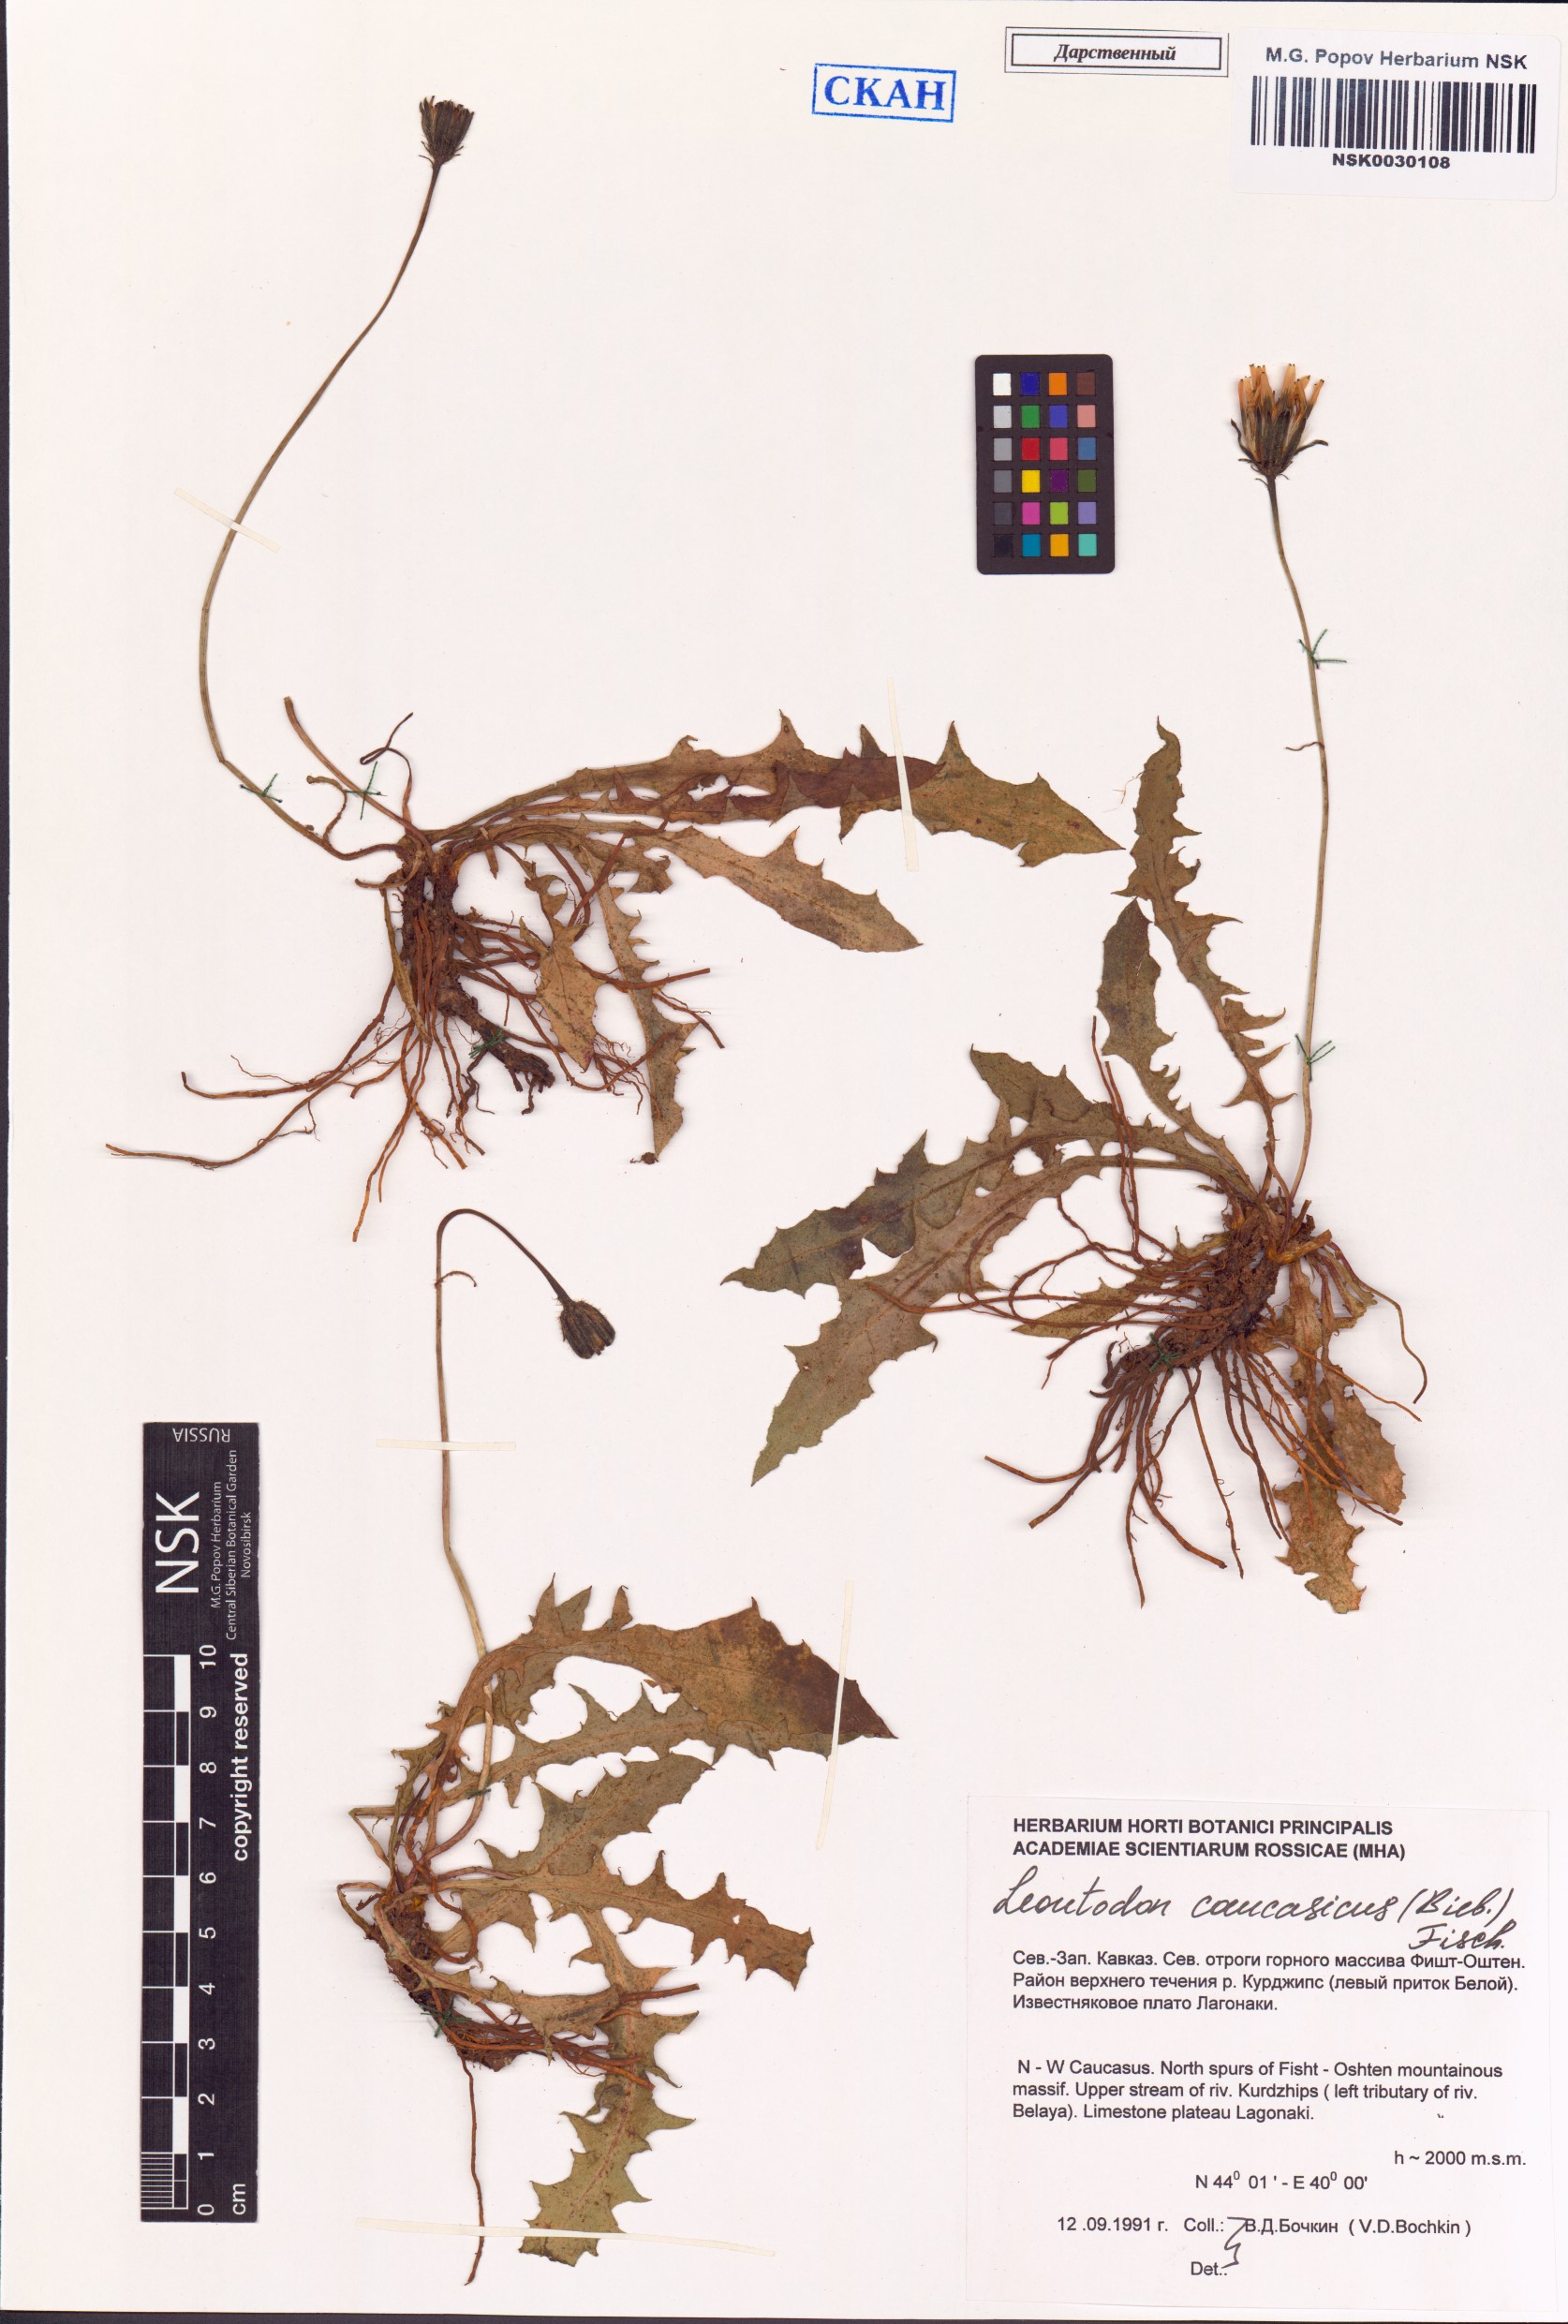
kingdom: Plantae
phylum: Tracheophyta
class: Magnoliopsida
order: Asterales
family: Asteraceae
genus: Leontodon
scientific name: Leontodon caucasicus
